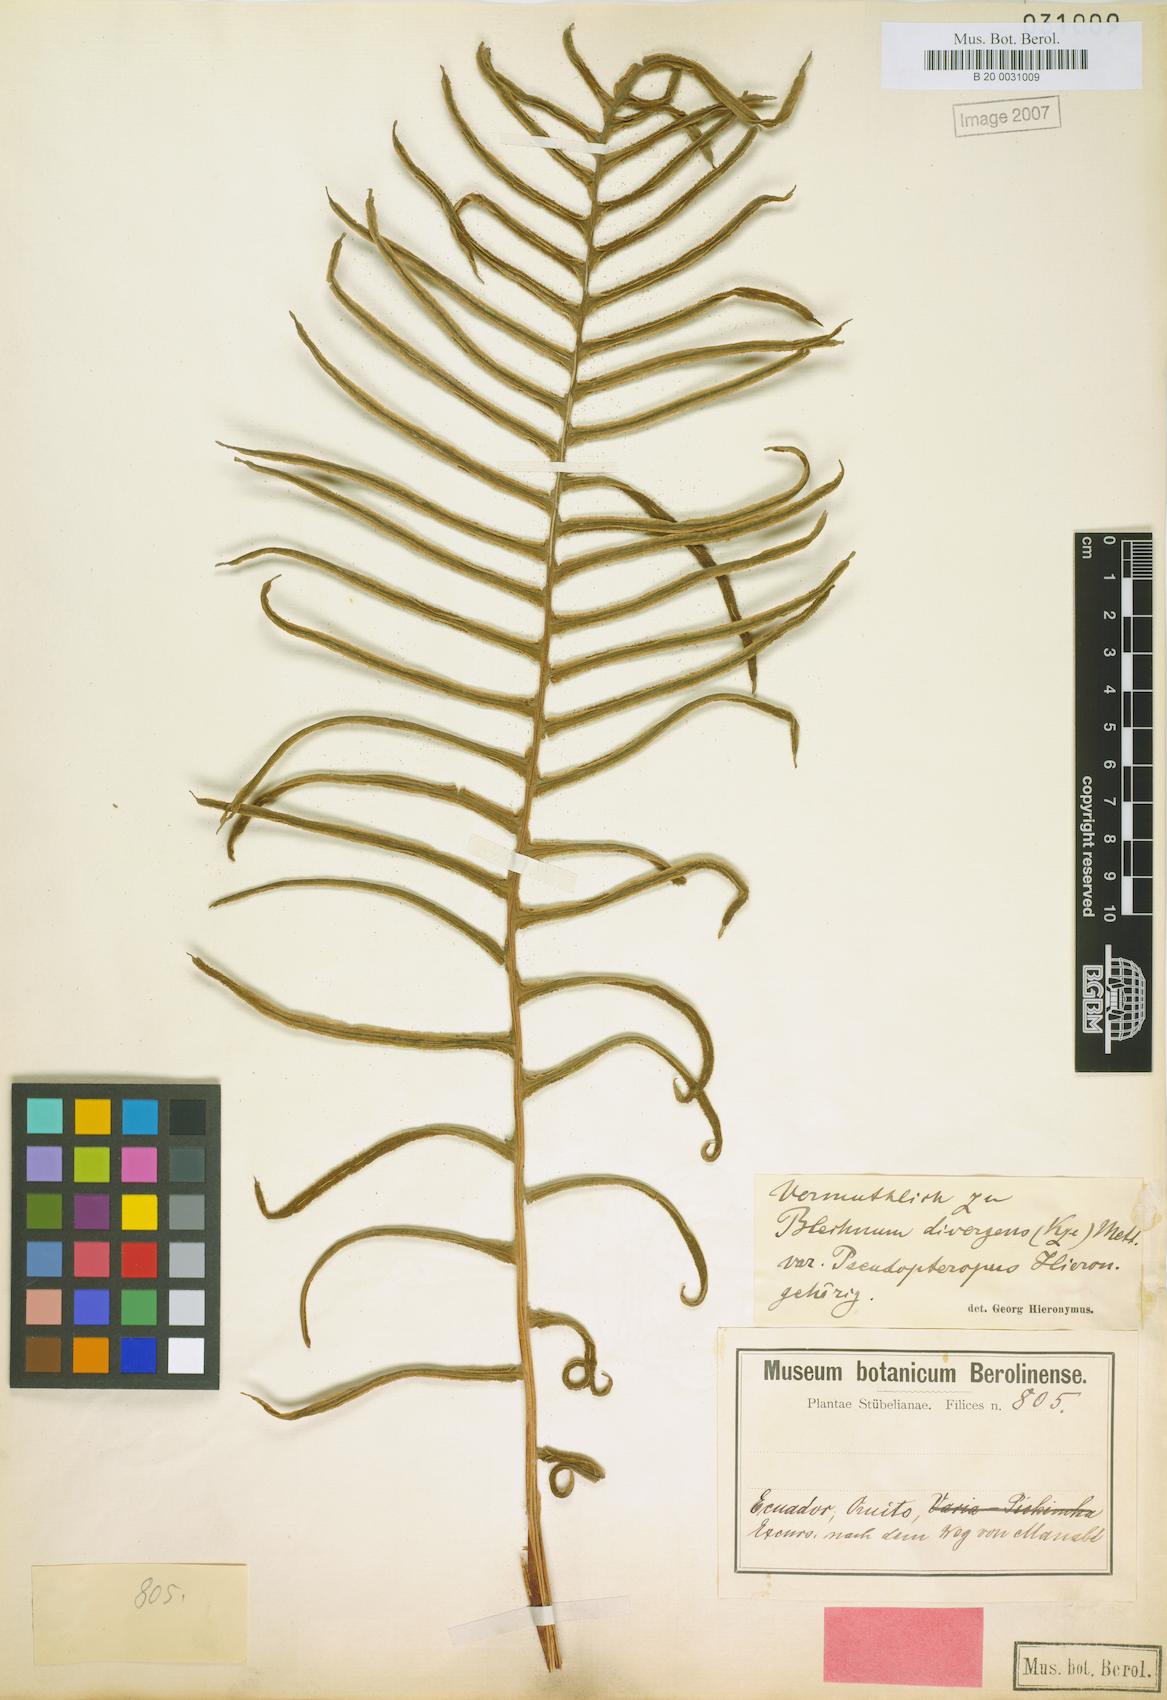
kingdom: Plantae
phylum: Tracheophyta
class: Polypodiopsida
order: Polypodiales
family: Blechnaceae
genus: Austroblechnum
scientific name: Austroblechnum divergens
